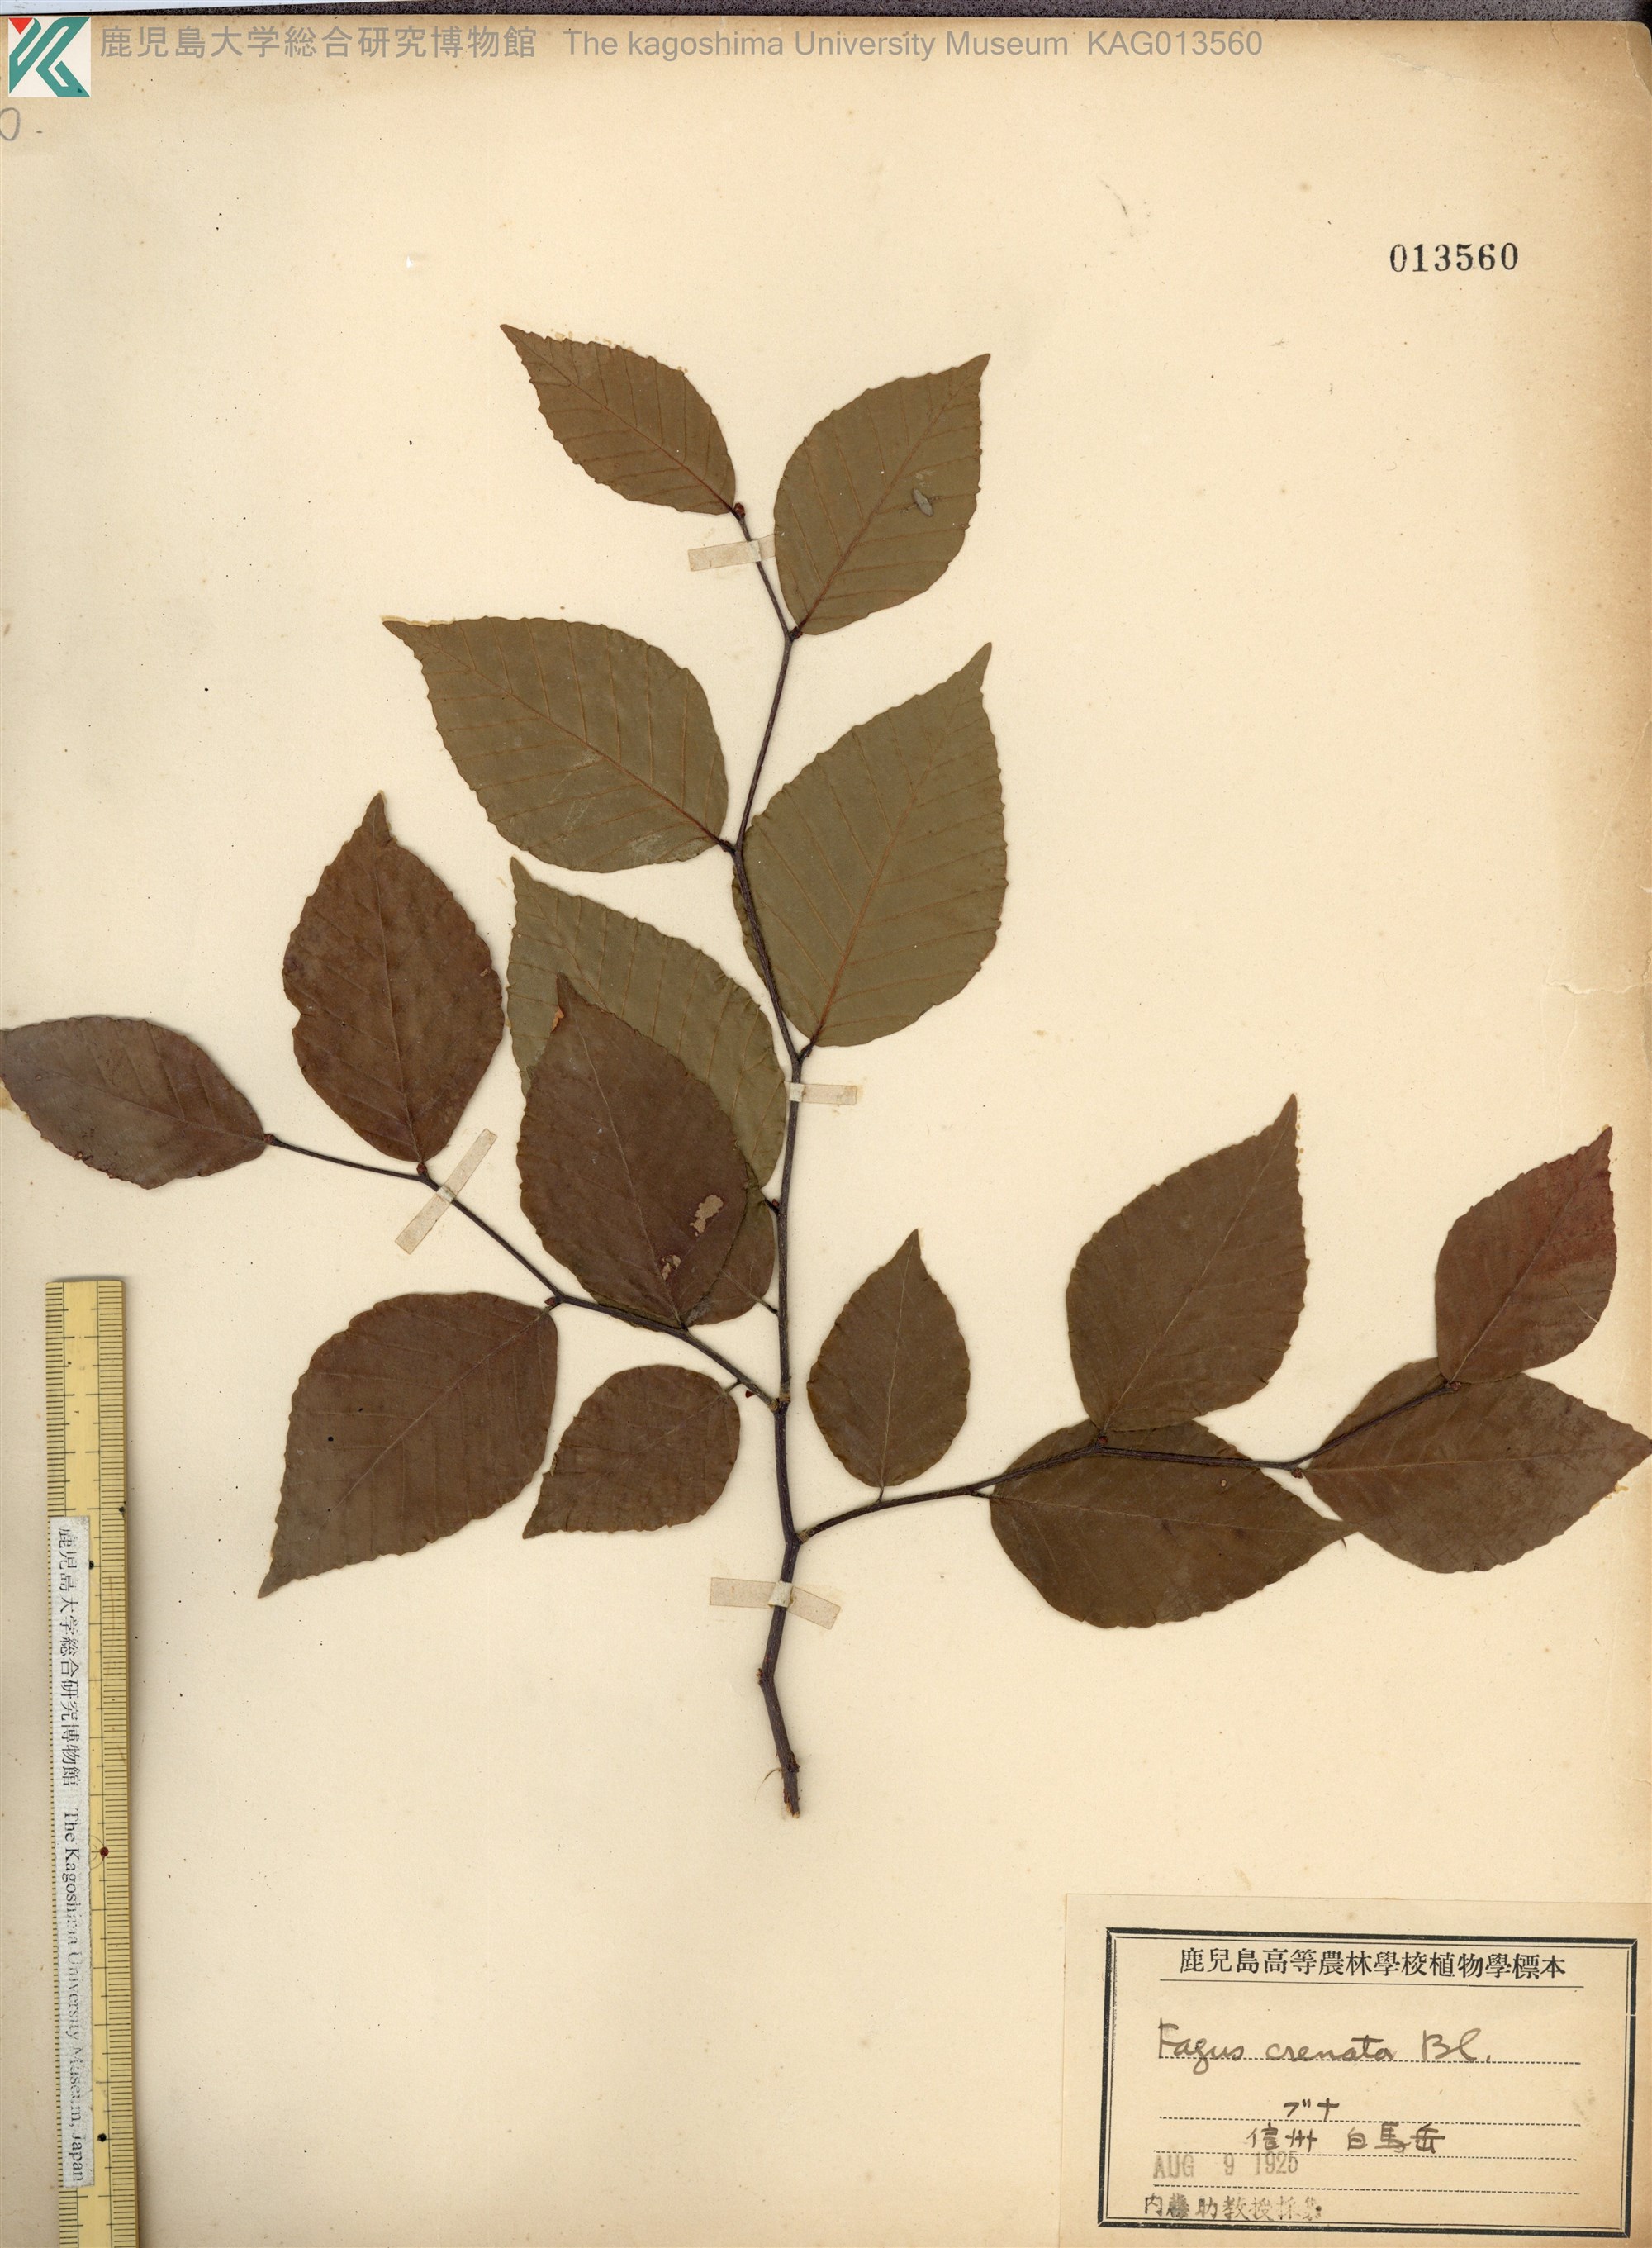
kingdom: Plantae
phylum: Tracheophyta
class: Magnoliopsida
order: Fagales
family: Fagaceae
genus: Fagus
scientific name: Fagus crenata
